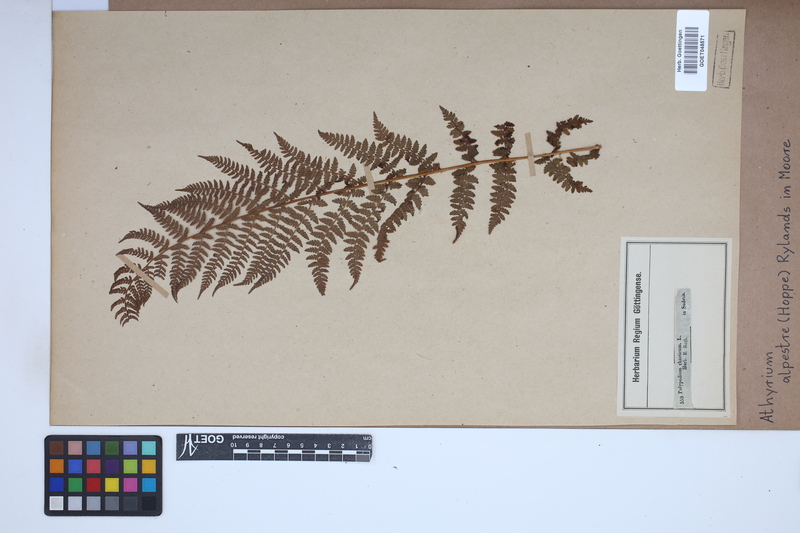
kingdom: Plantae
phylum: Tracheophyta
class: Polypodiopsida
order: Polypodiales
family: Athyriaceae
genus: Pseudathyrium
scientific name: Pseudathyrium alpestre
